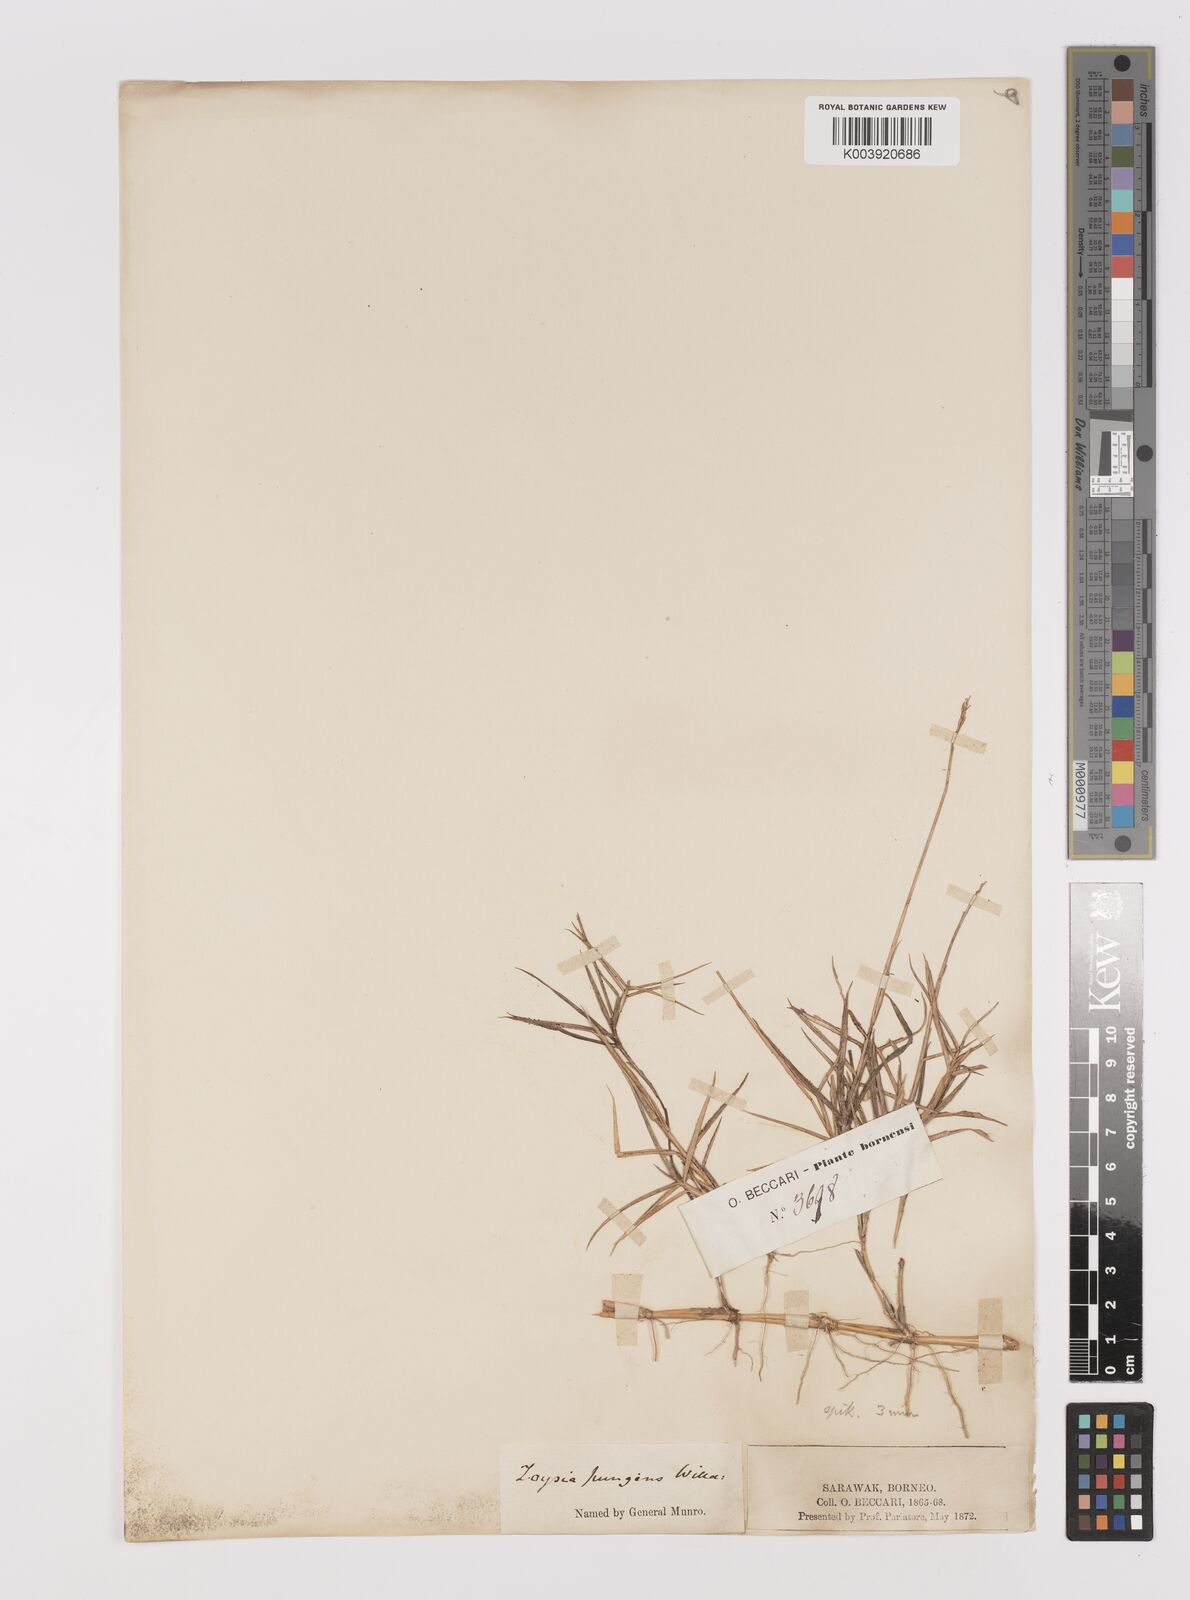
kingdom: Plantae
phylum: Tracheophyta
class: Liliopsida
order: Poales
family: Poaceae
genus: Zoysia
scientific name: Zoysia matrella
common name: Manila grass
